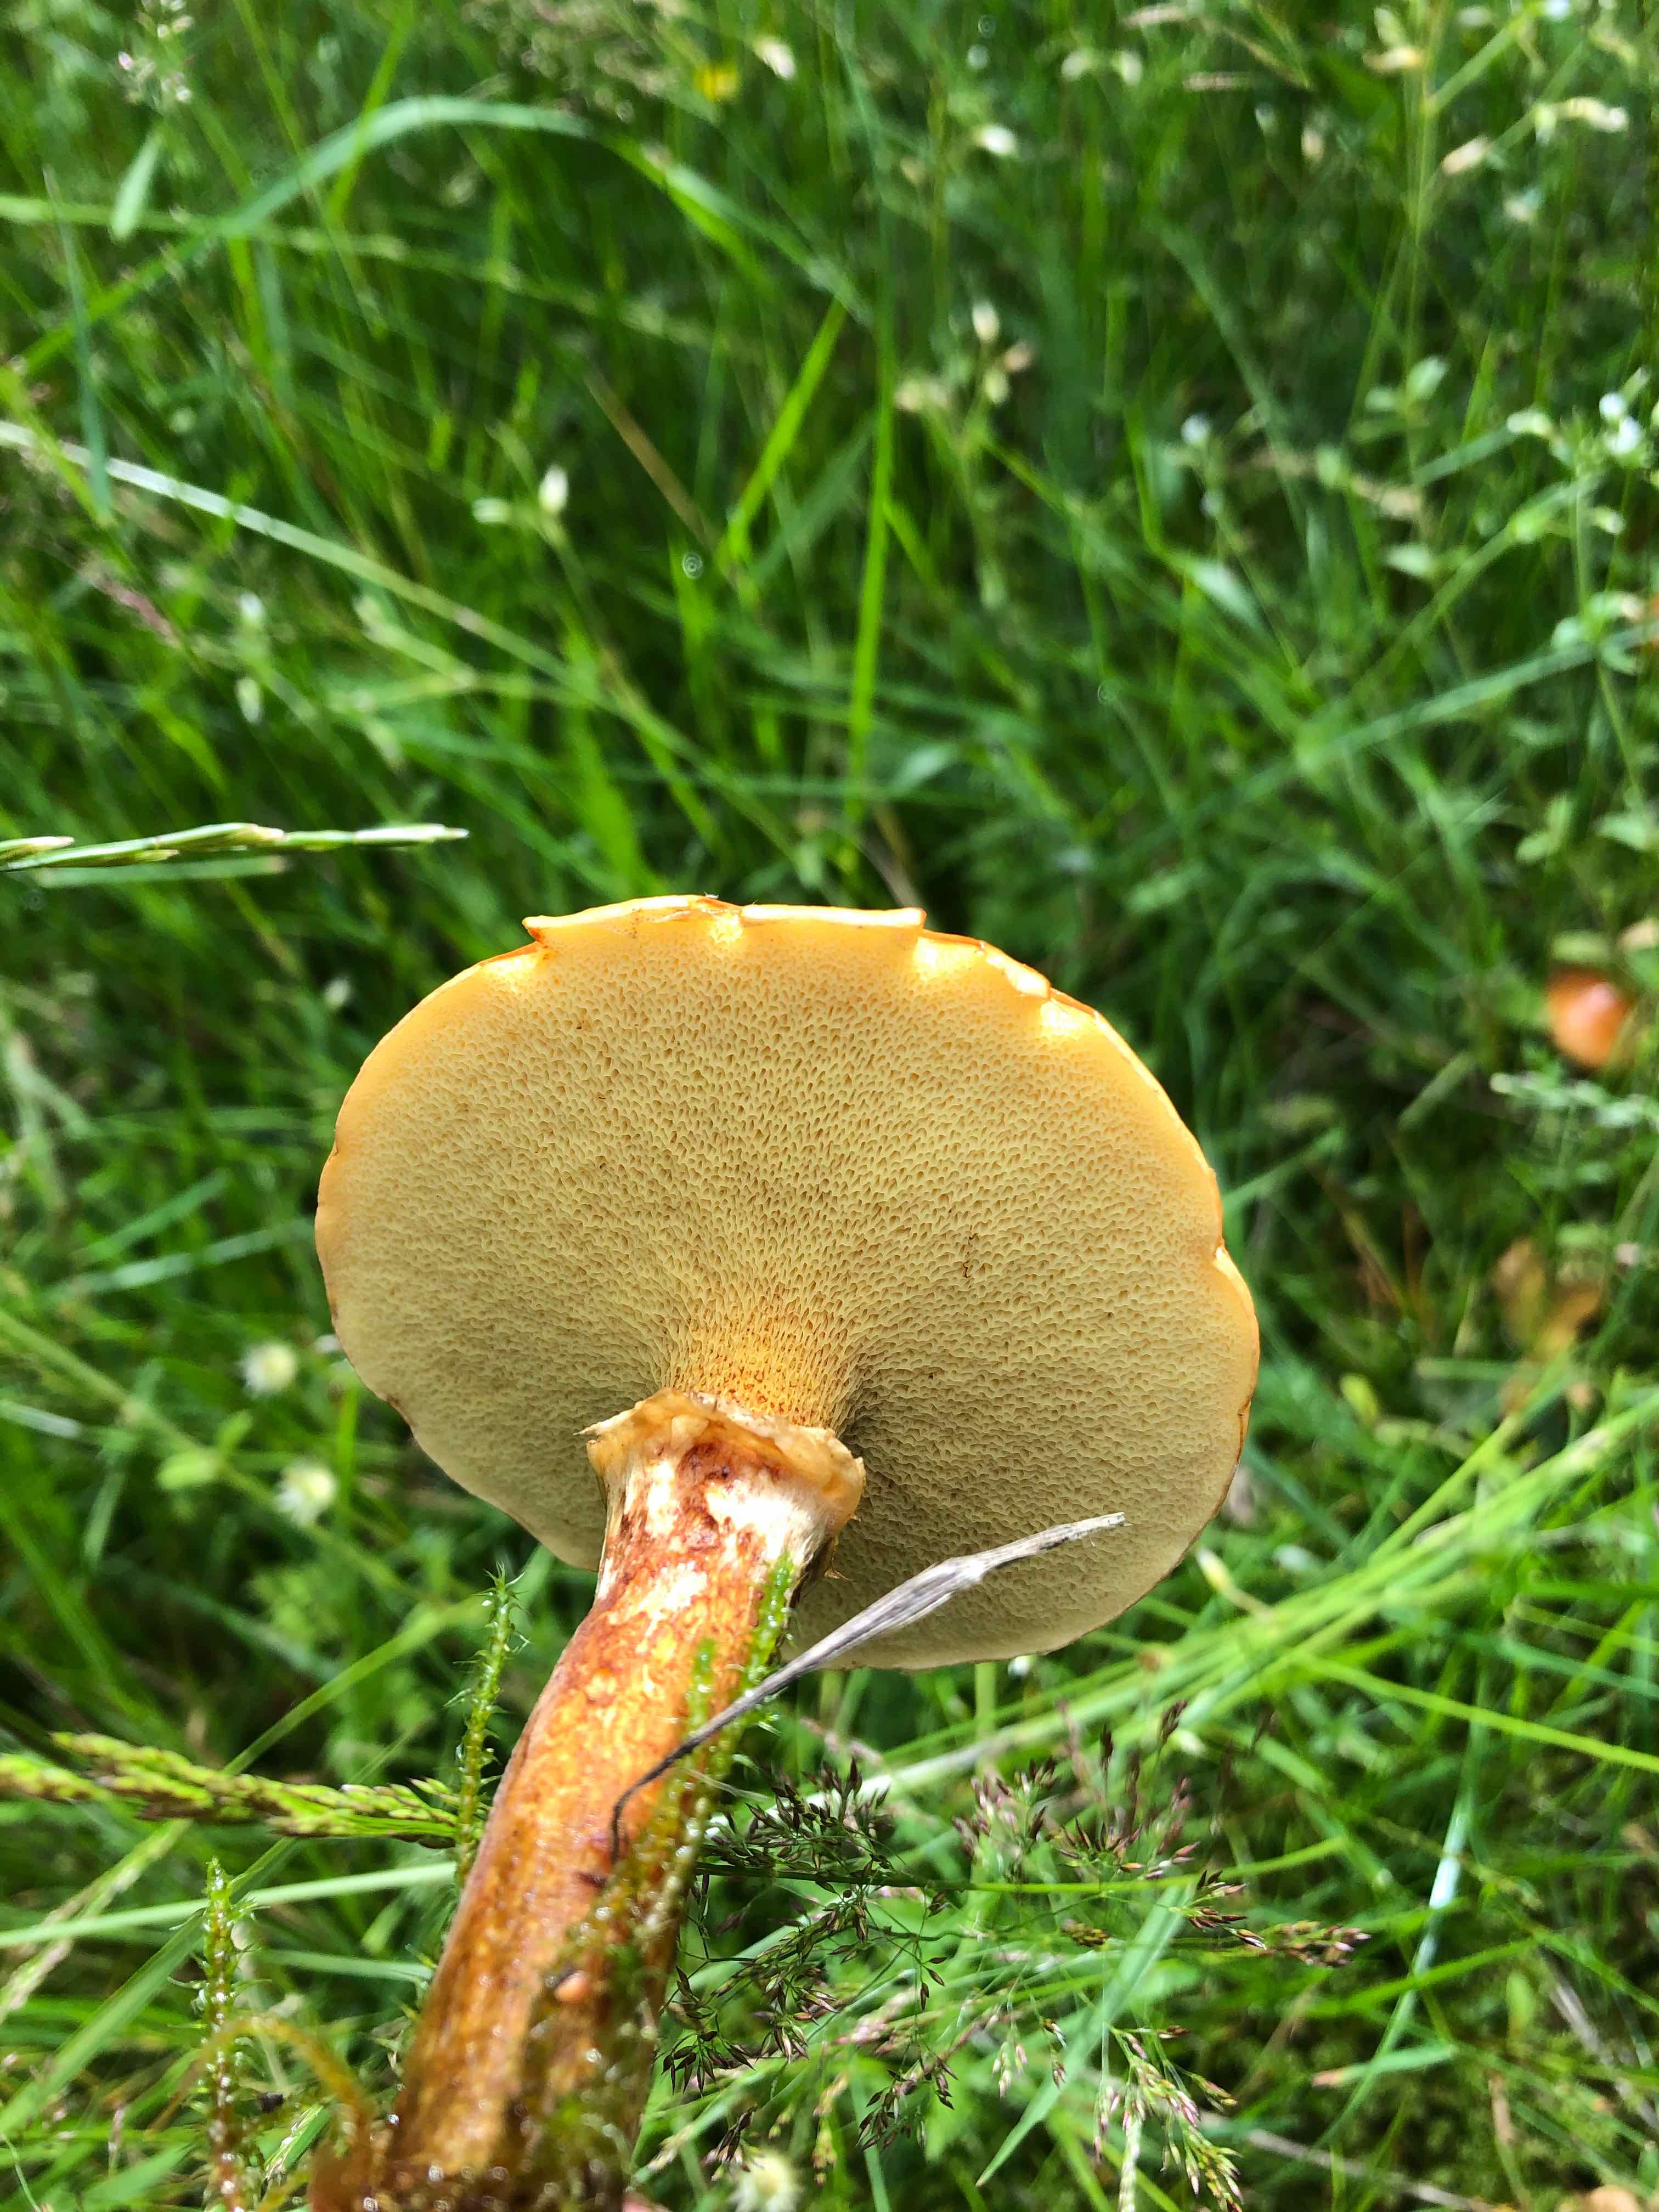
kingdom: Fungi
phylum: Basidiomycota
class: Agaricomycetes
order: Boletales
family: Suillaceae
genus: Suillus
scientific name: Suillus grevillei
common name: lærke-slimrørhat
